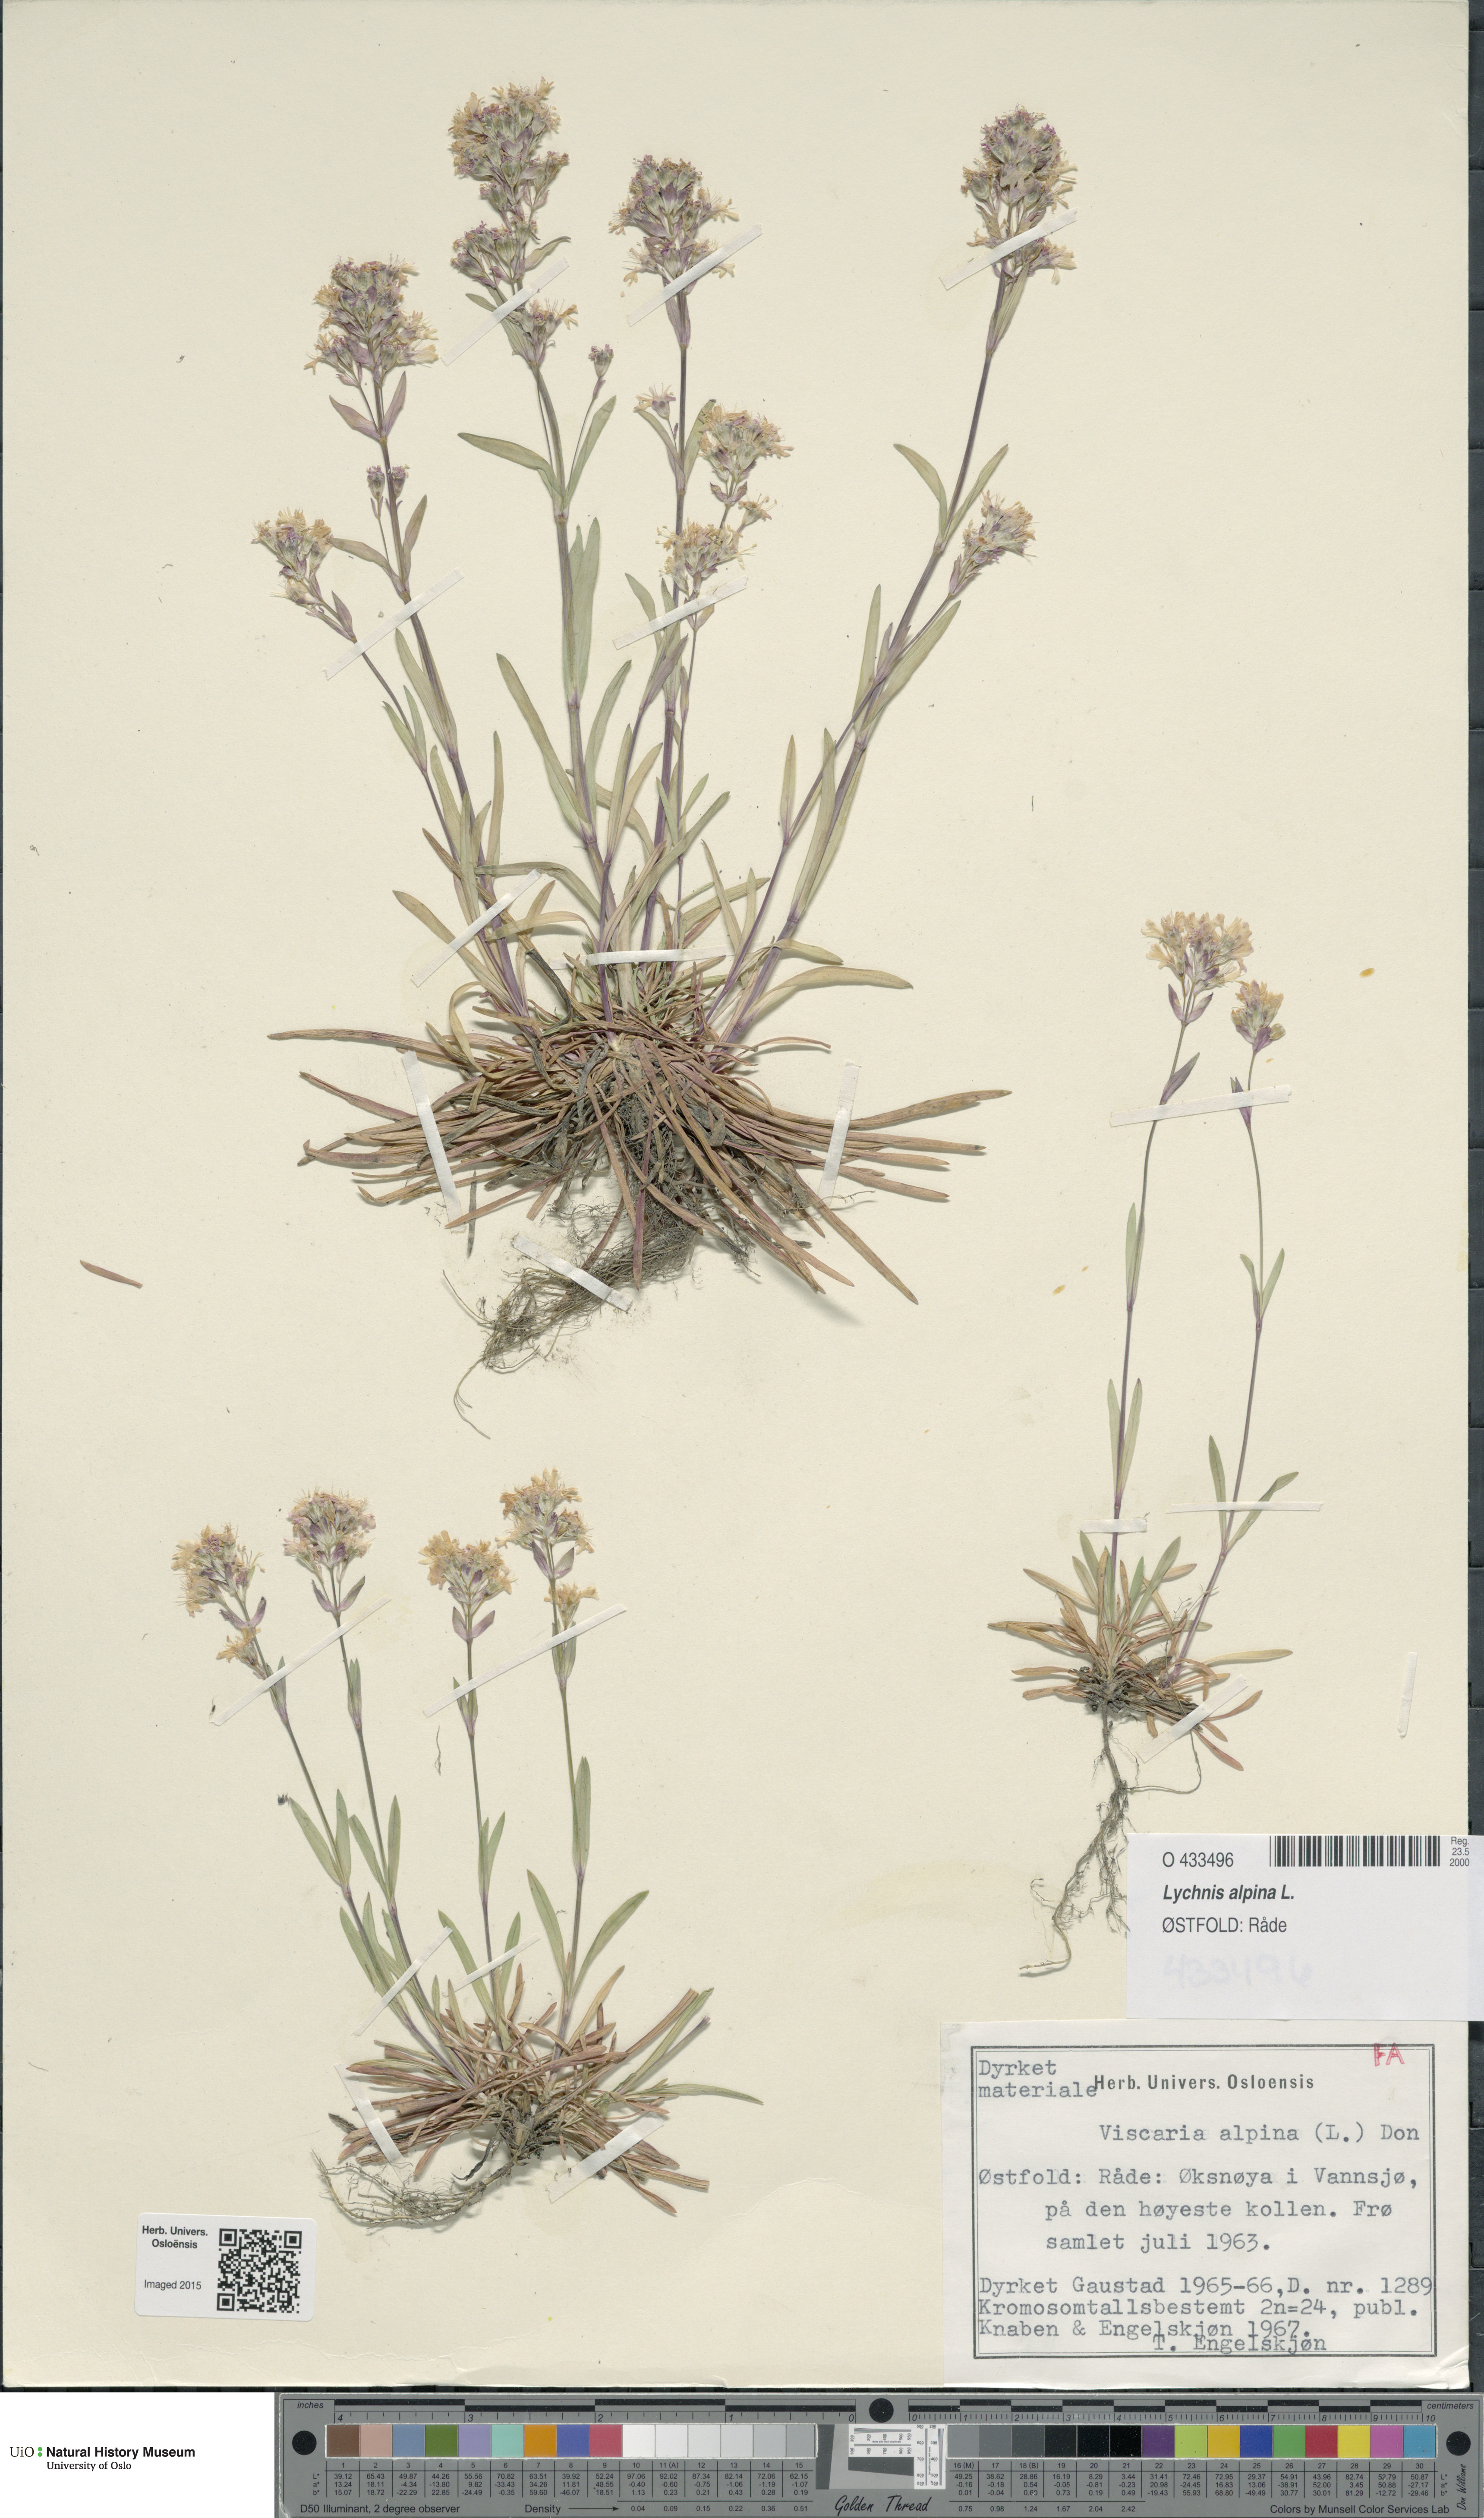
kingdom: Plantae
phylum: Tracheophyta
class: Magnoliopsida
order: Caryophyllales
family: Caryophyllaceae
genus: Viscaria
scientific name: Viscaria alpina
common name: Alpine campion
